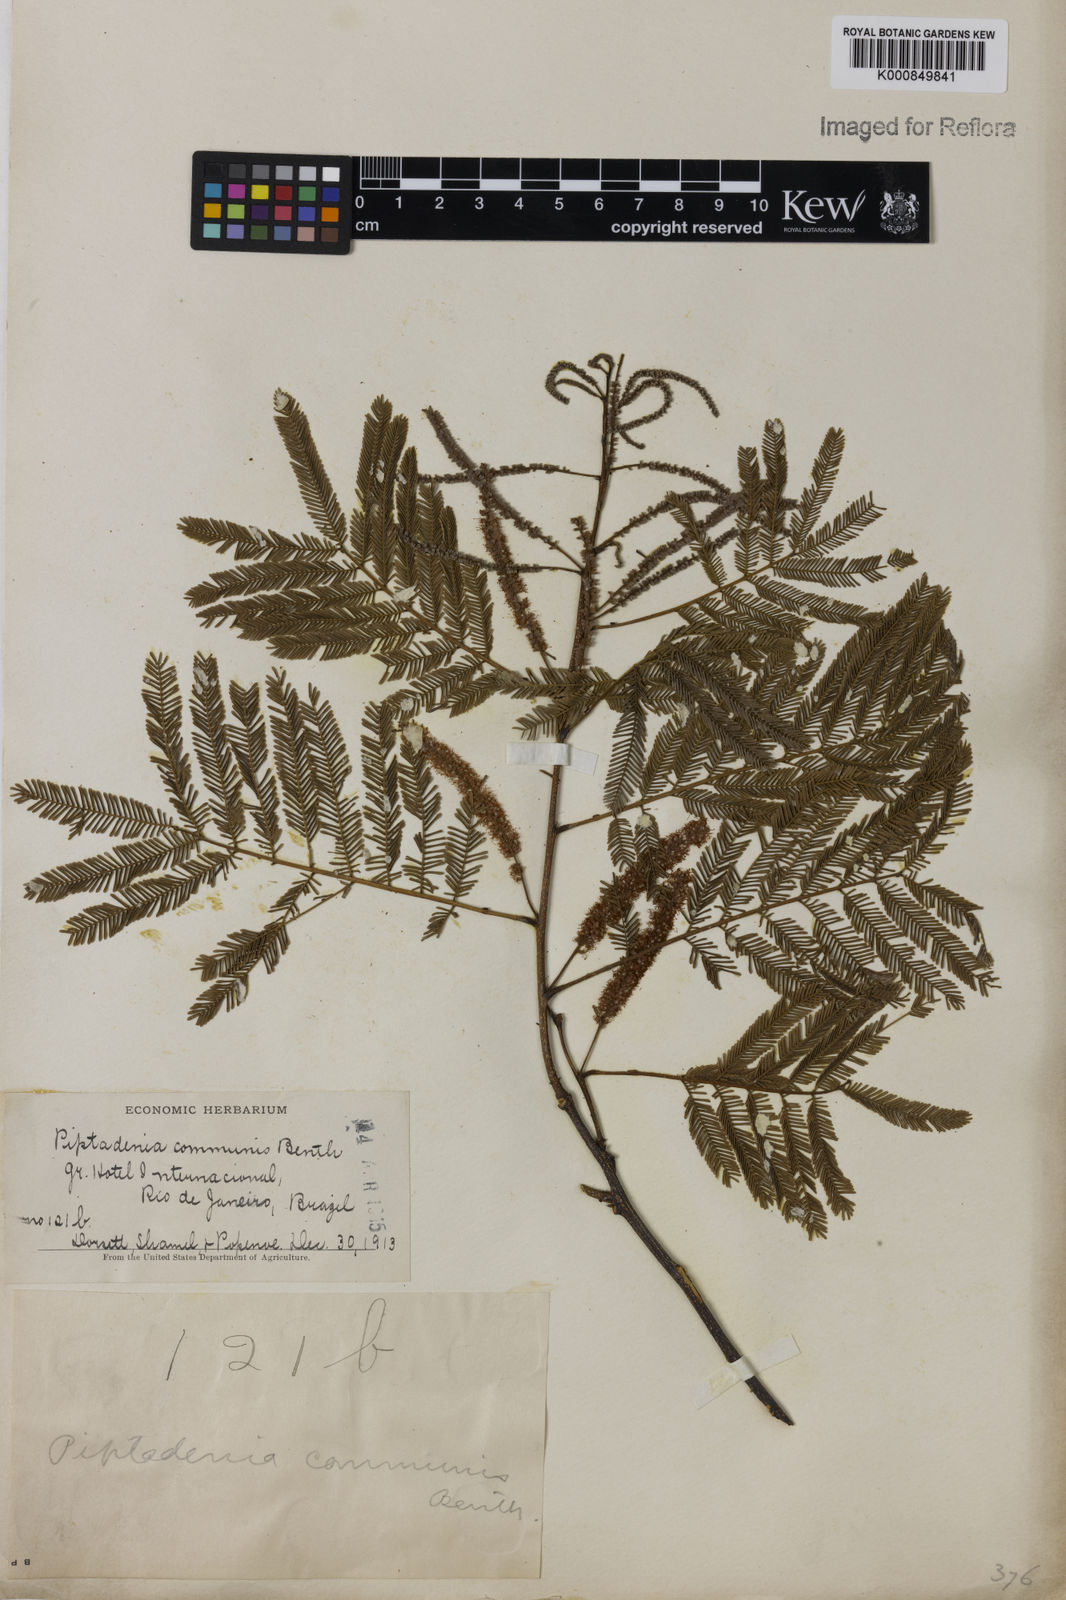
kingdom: Plantae
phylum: Tracheophyta
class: Magnoliopsida
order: Fabales
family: Fabaceae
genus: Piptadenia
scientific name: Piptadenia gonoacantha
